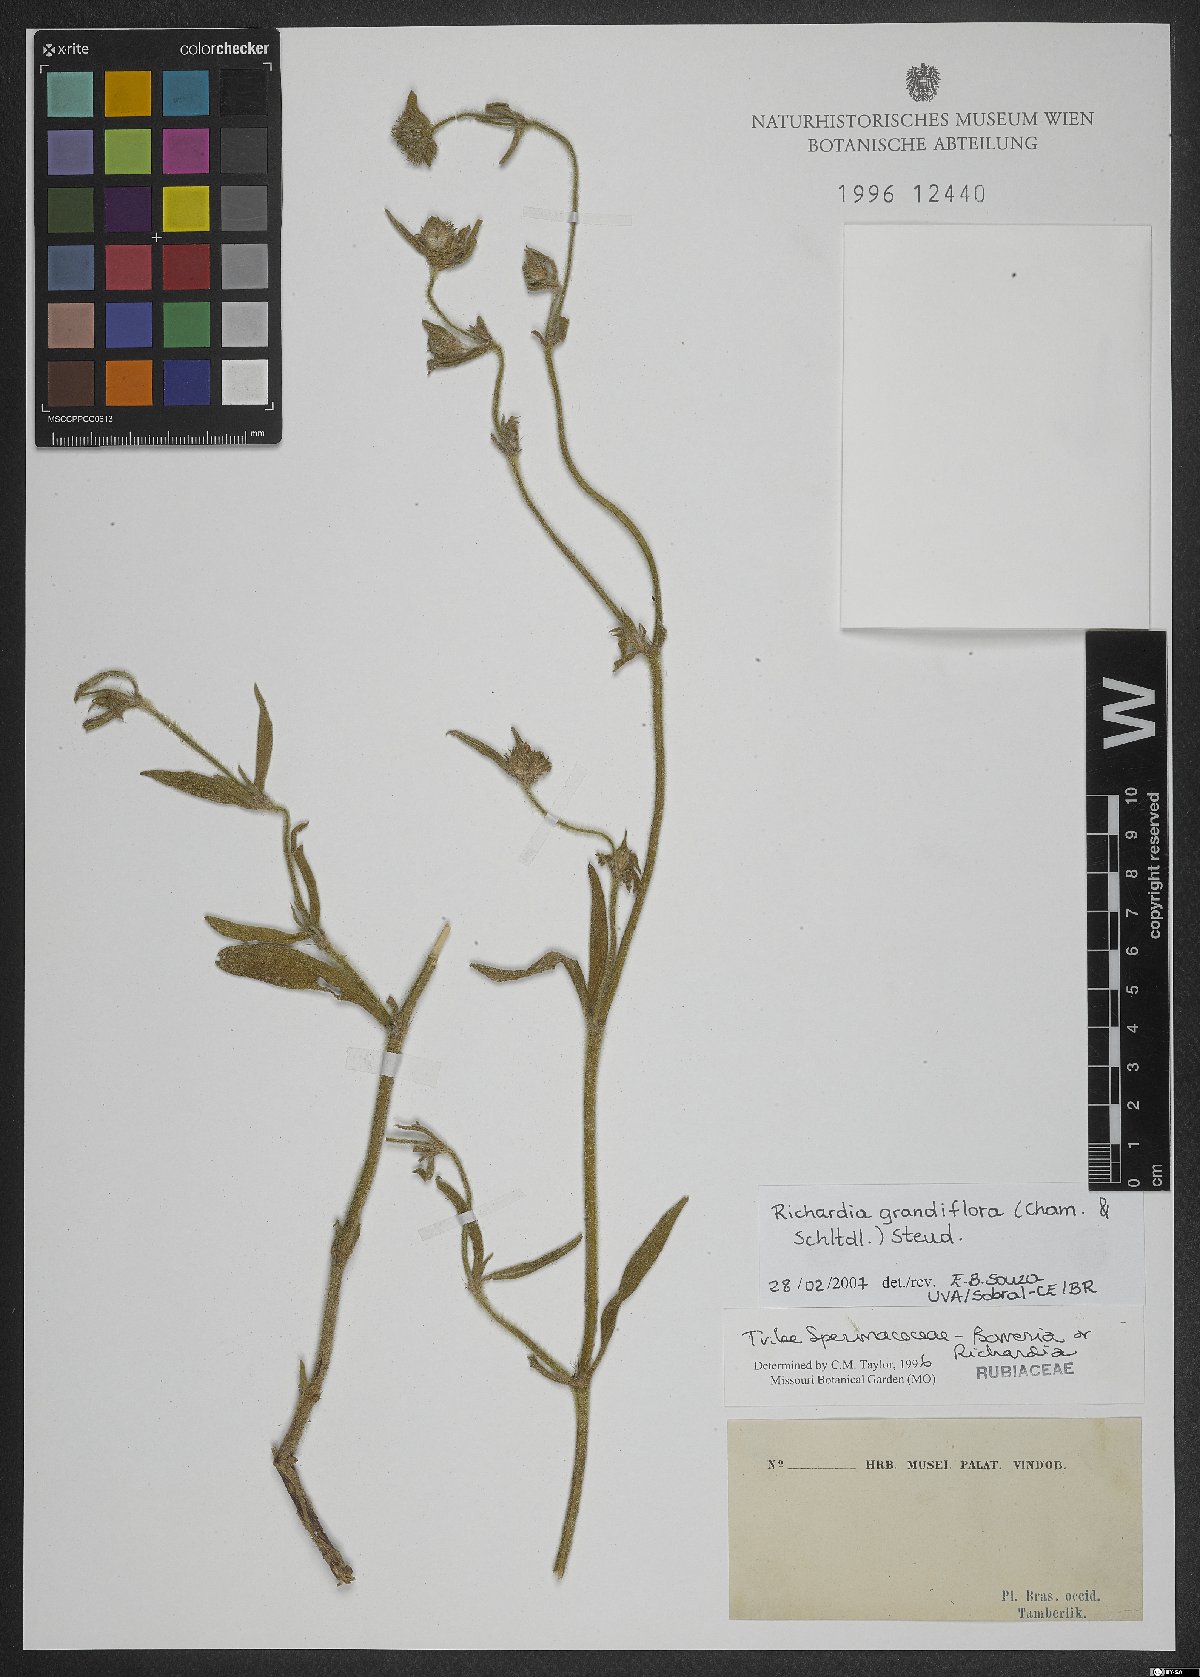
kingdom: Plantae
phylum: Tracheophyta
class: Magnoliopsida
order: Gentianales
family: Rubiaceae
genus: Richardia
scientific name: Richardia grandiflora
